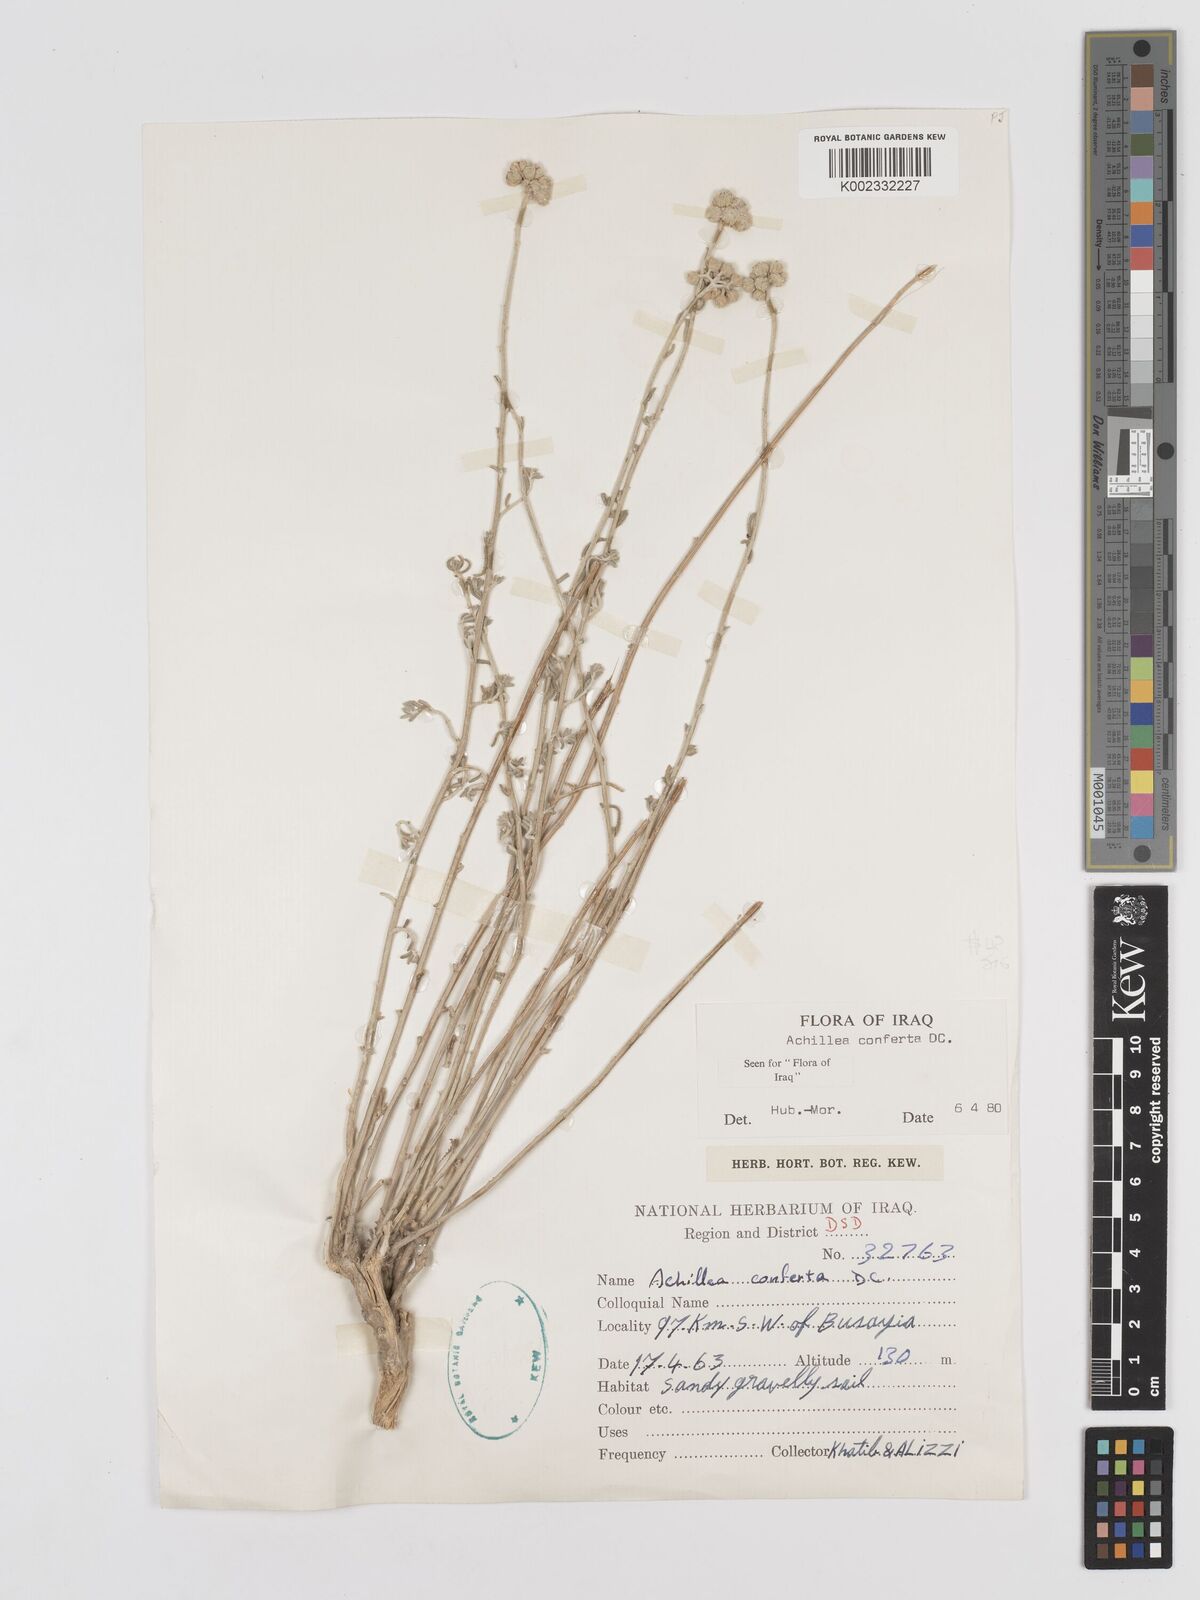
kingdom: Plantae
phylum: Tracheophyta
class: Magnoliopsida
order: Asterales
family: Asteraceae
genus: Achillea
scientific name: Achillea conferta
